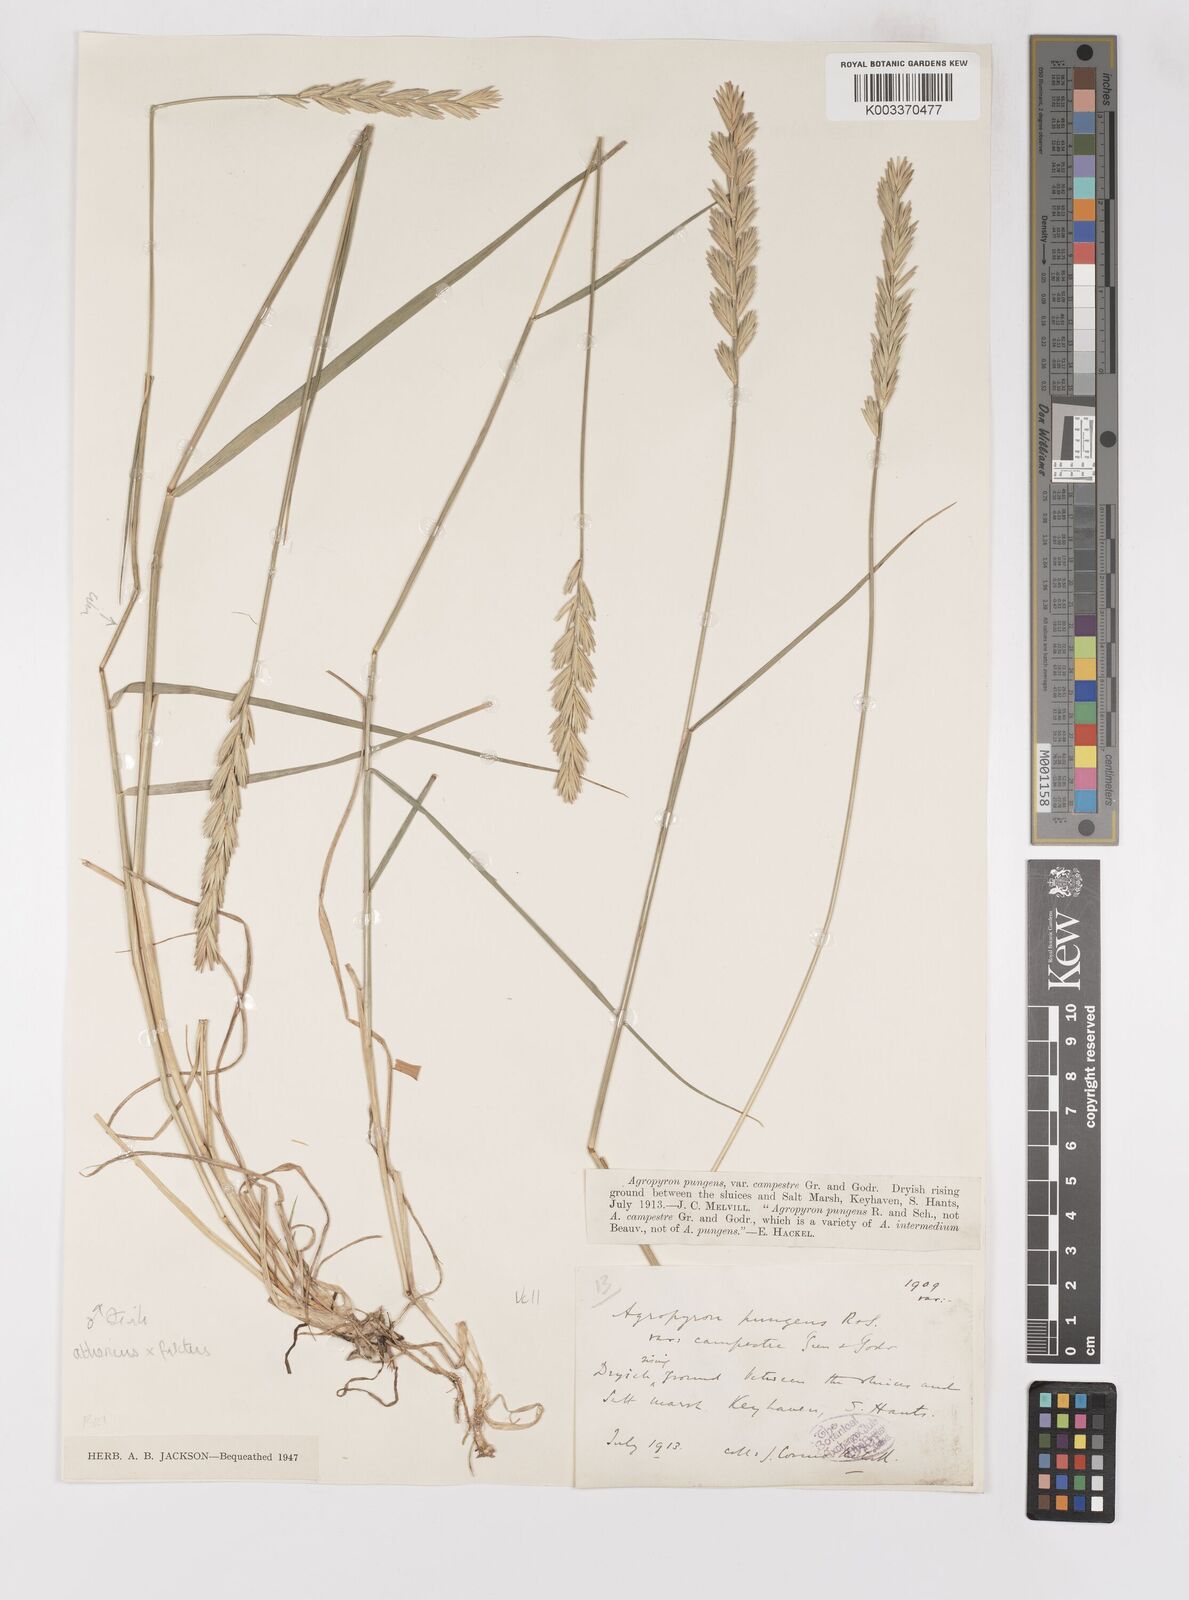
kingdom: Plantae
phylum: Tracheophyta
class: Liliopsida
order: Poales
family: Poaceae
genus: Thinoelymus
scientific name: Thinoelymus obtusiusculus
